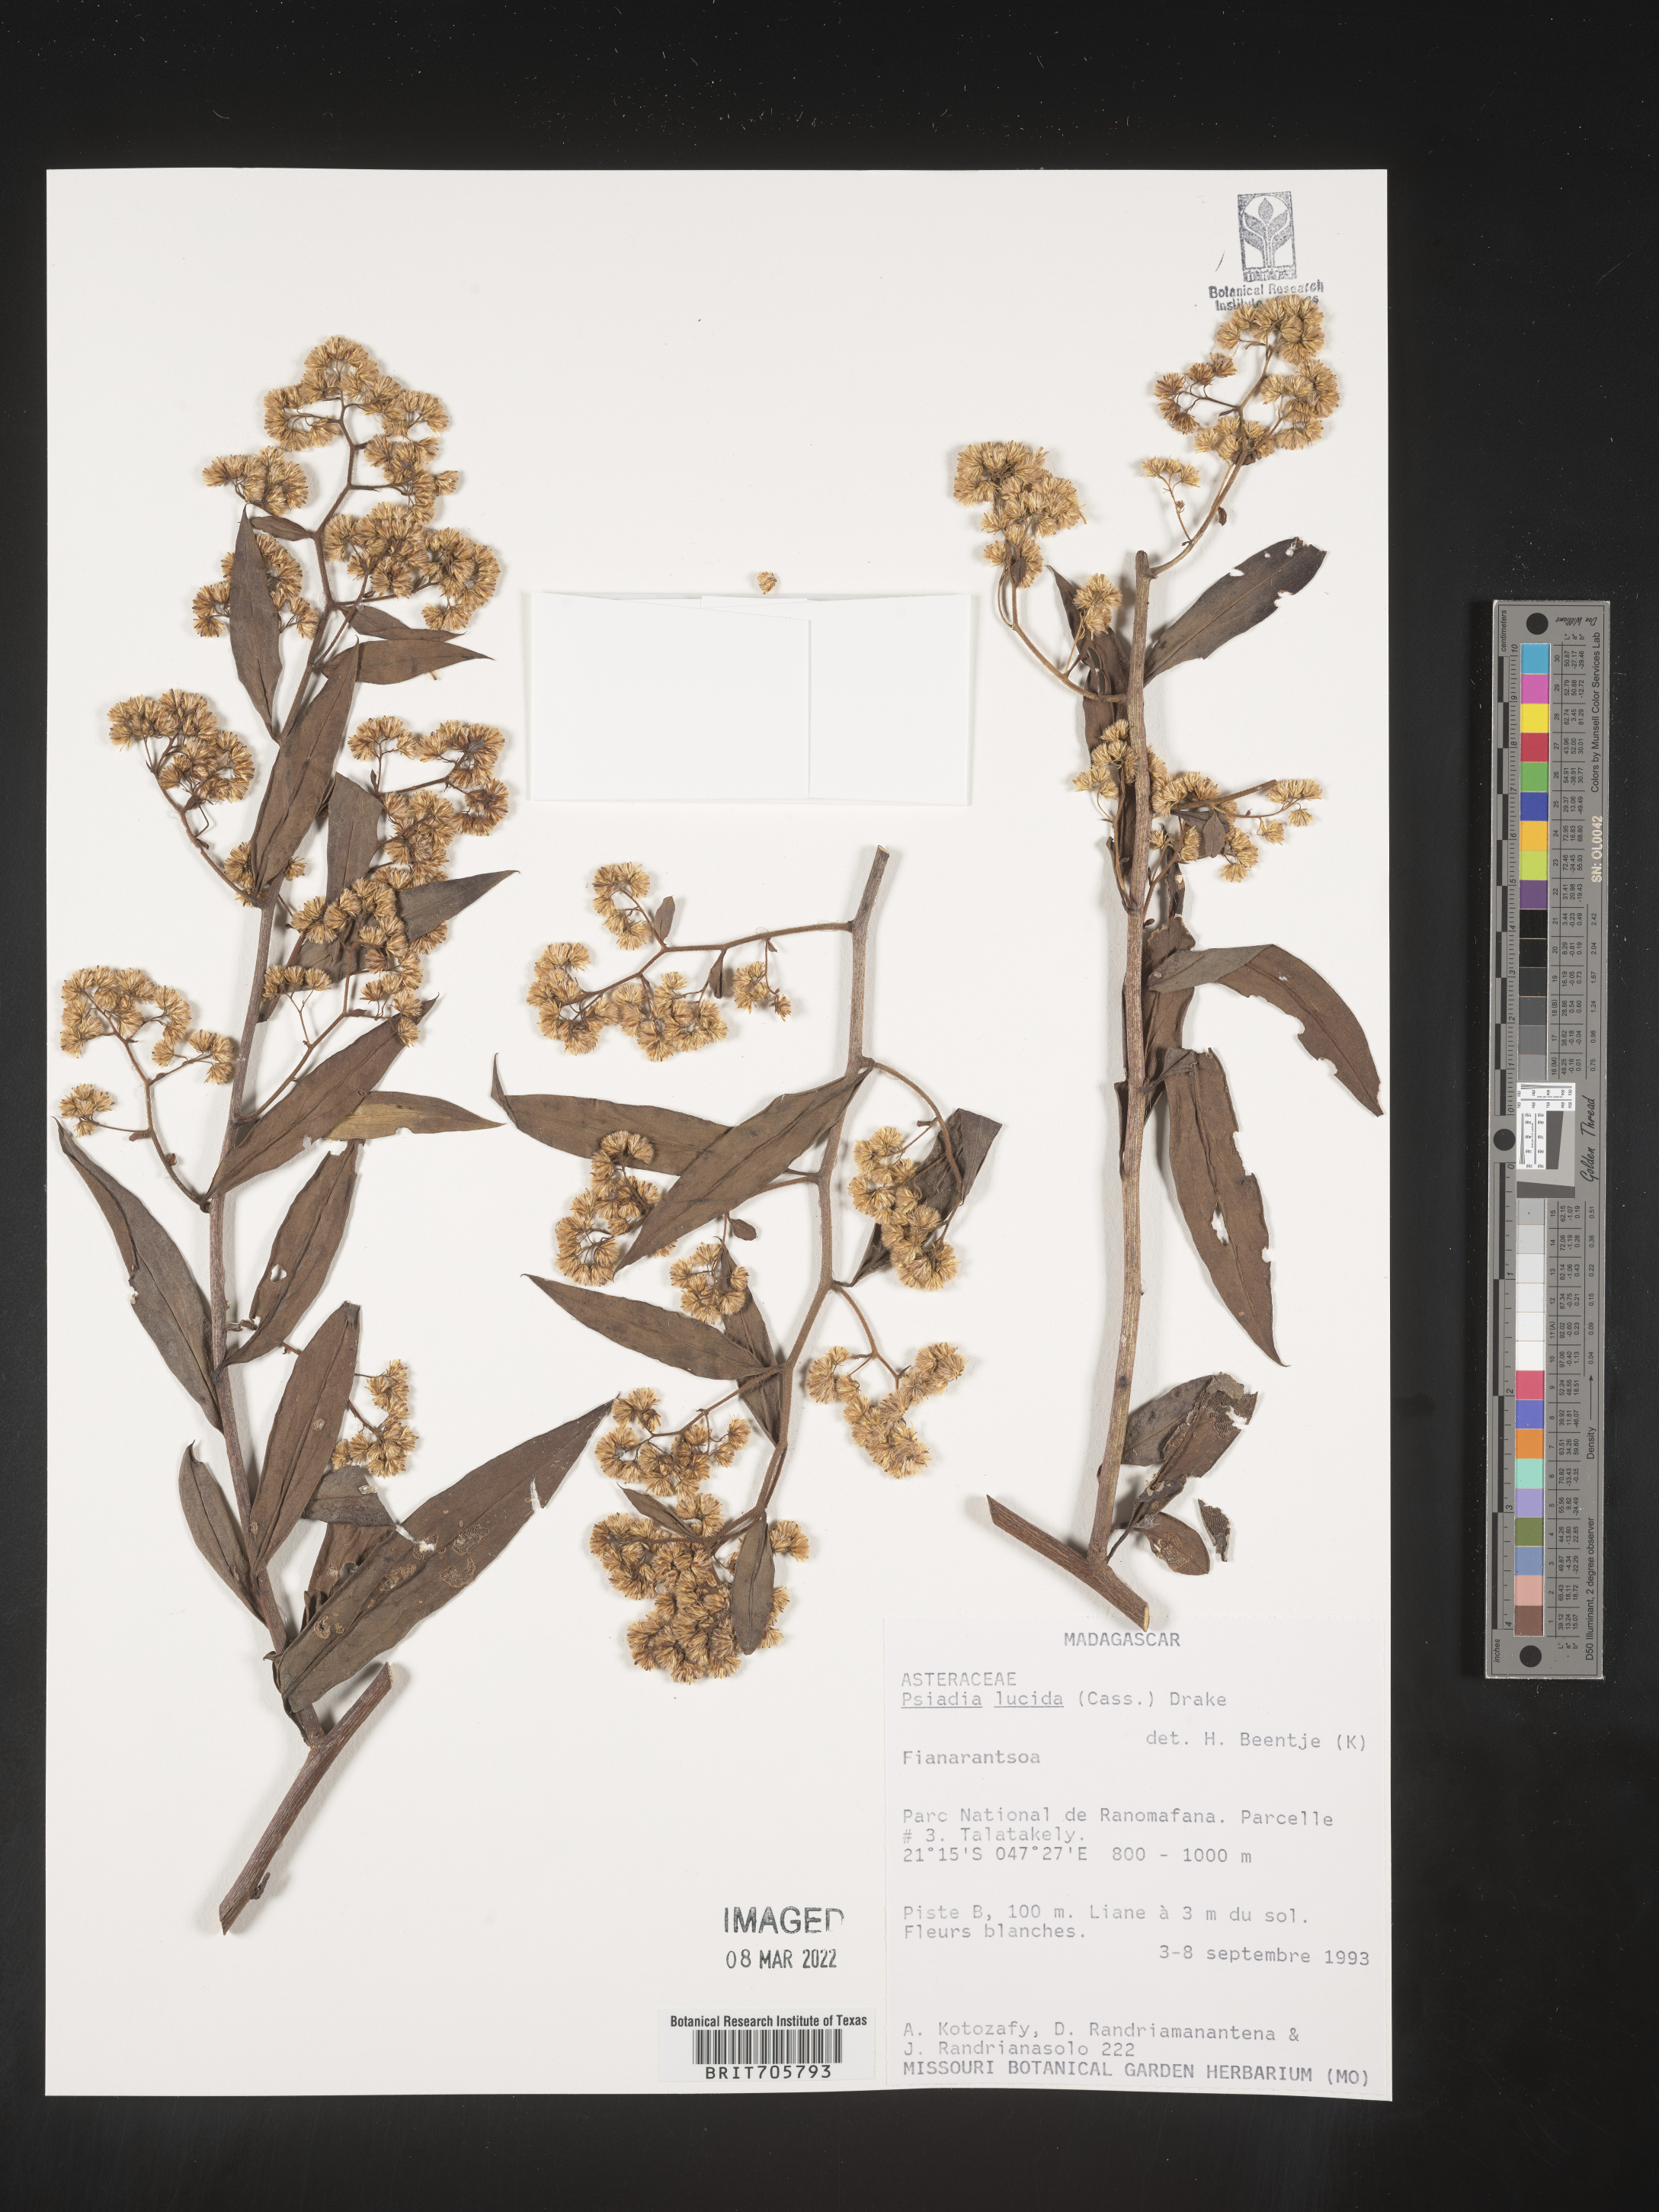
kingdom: Plantae
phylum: Tracheophyta
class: Magnoliopsida
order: Asterales
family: Asteraceae
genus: Psiadia
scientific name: Psiadia
